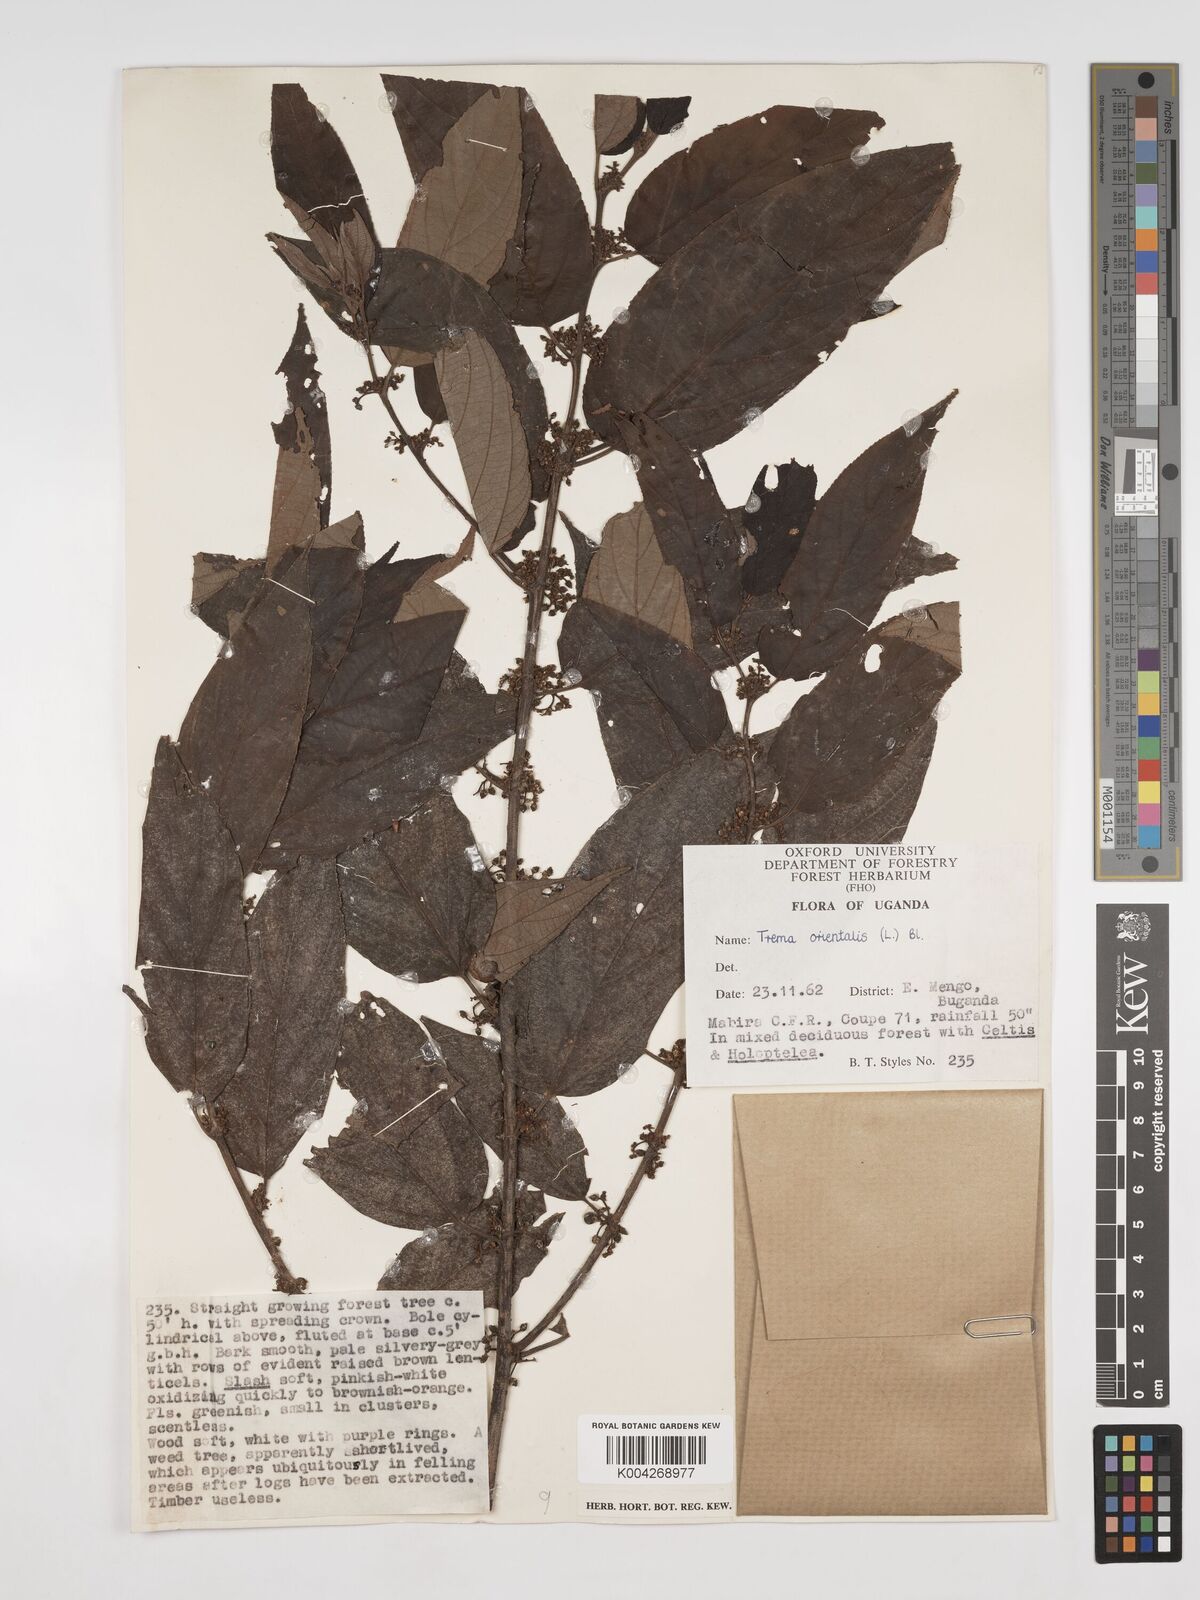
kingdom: Plantae
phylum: Tracheophyta
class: Magnoliopsida
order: Rosales
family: Cannabaceae
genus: Trema
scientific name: Trema orientale
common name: Indian charcoal tree
